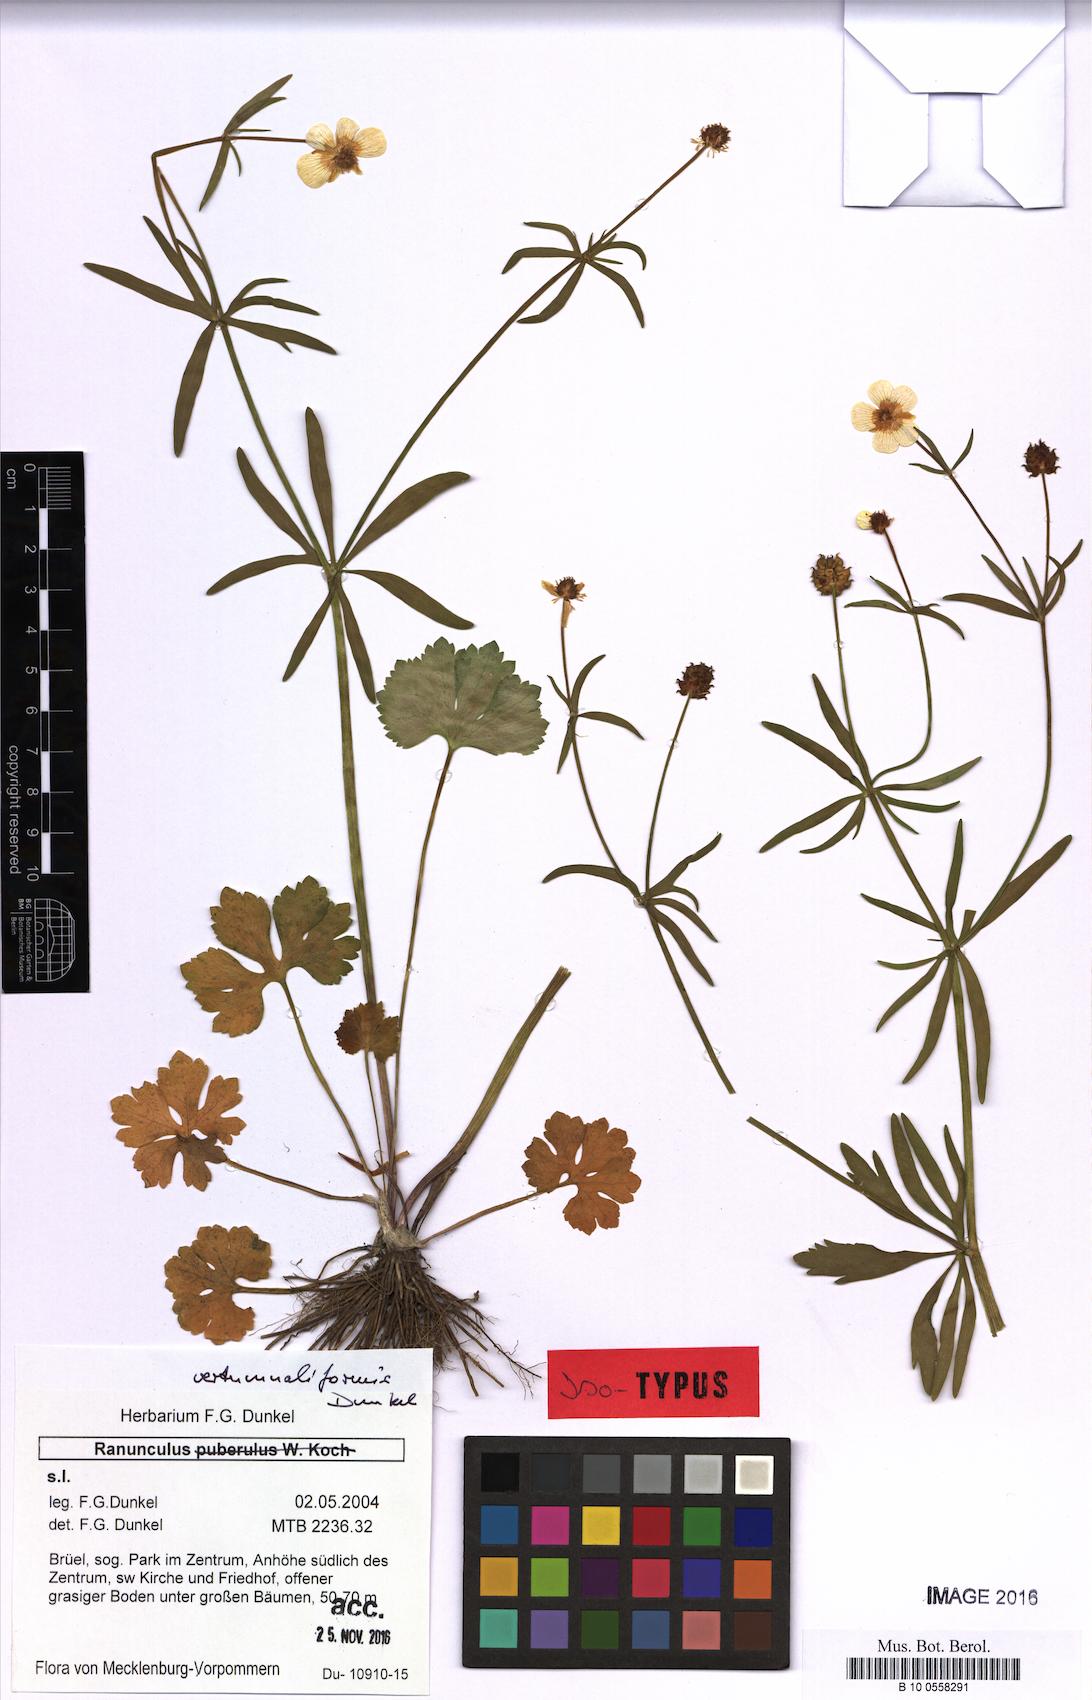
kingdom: Plantae
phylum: Tracheophyta
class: Magnoliopsida
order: Ranunculales
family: Ranunculaceae
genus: Ranunculus
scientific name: Ranunculus vertumnaliformis
